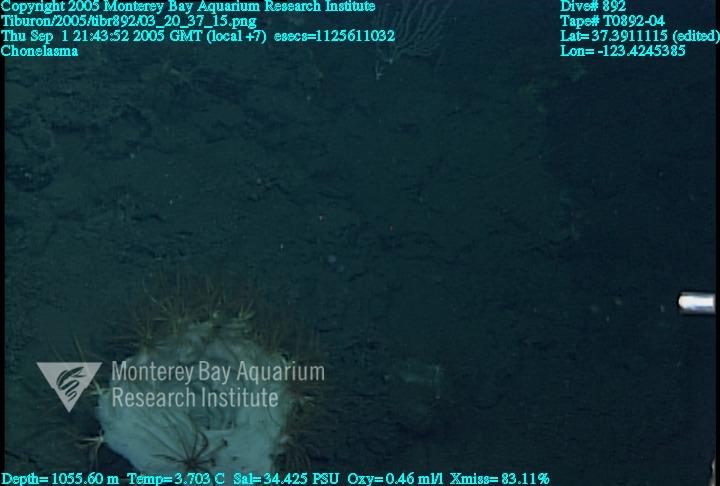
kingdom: Animalia
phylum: Porifera
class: Hexactinellida
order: Sceptrulophora
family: Euretidae
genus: Chonelasma
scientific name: Chonelasma
